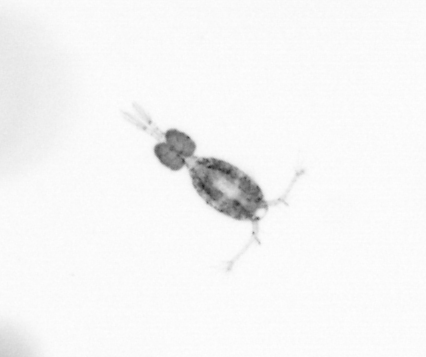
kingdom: Animalia
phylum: Arthropoda
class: Copepoda
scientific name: Copepoda
